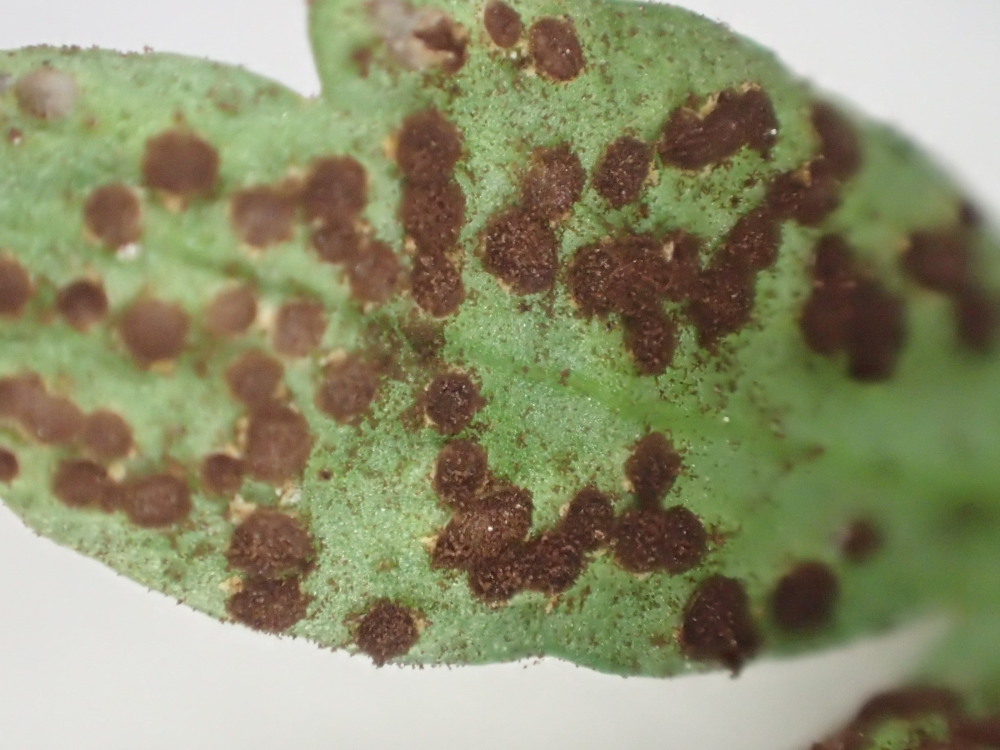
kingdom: Fungi
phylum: Basidiomycota
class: Pucciniomycetes
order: Pucciniales
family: Tranzscheliaceae
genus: Tranzschelia
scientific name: Tranzschelia anemones
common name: anemone-knæksporerust
